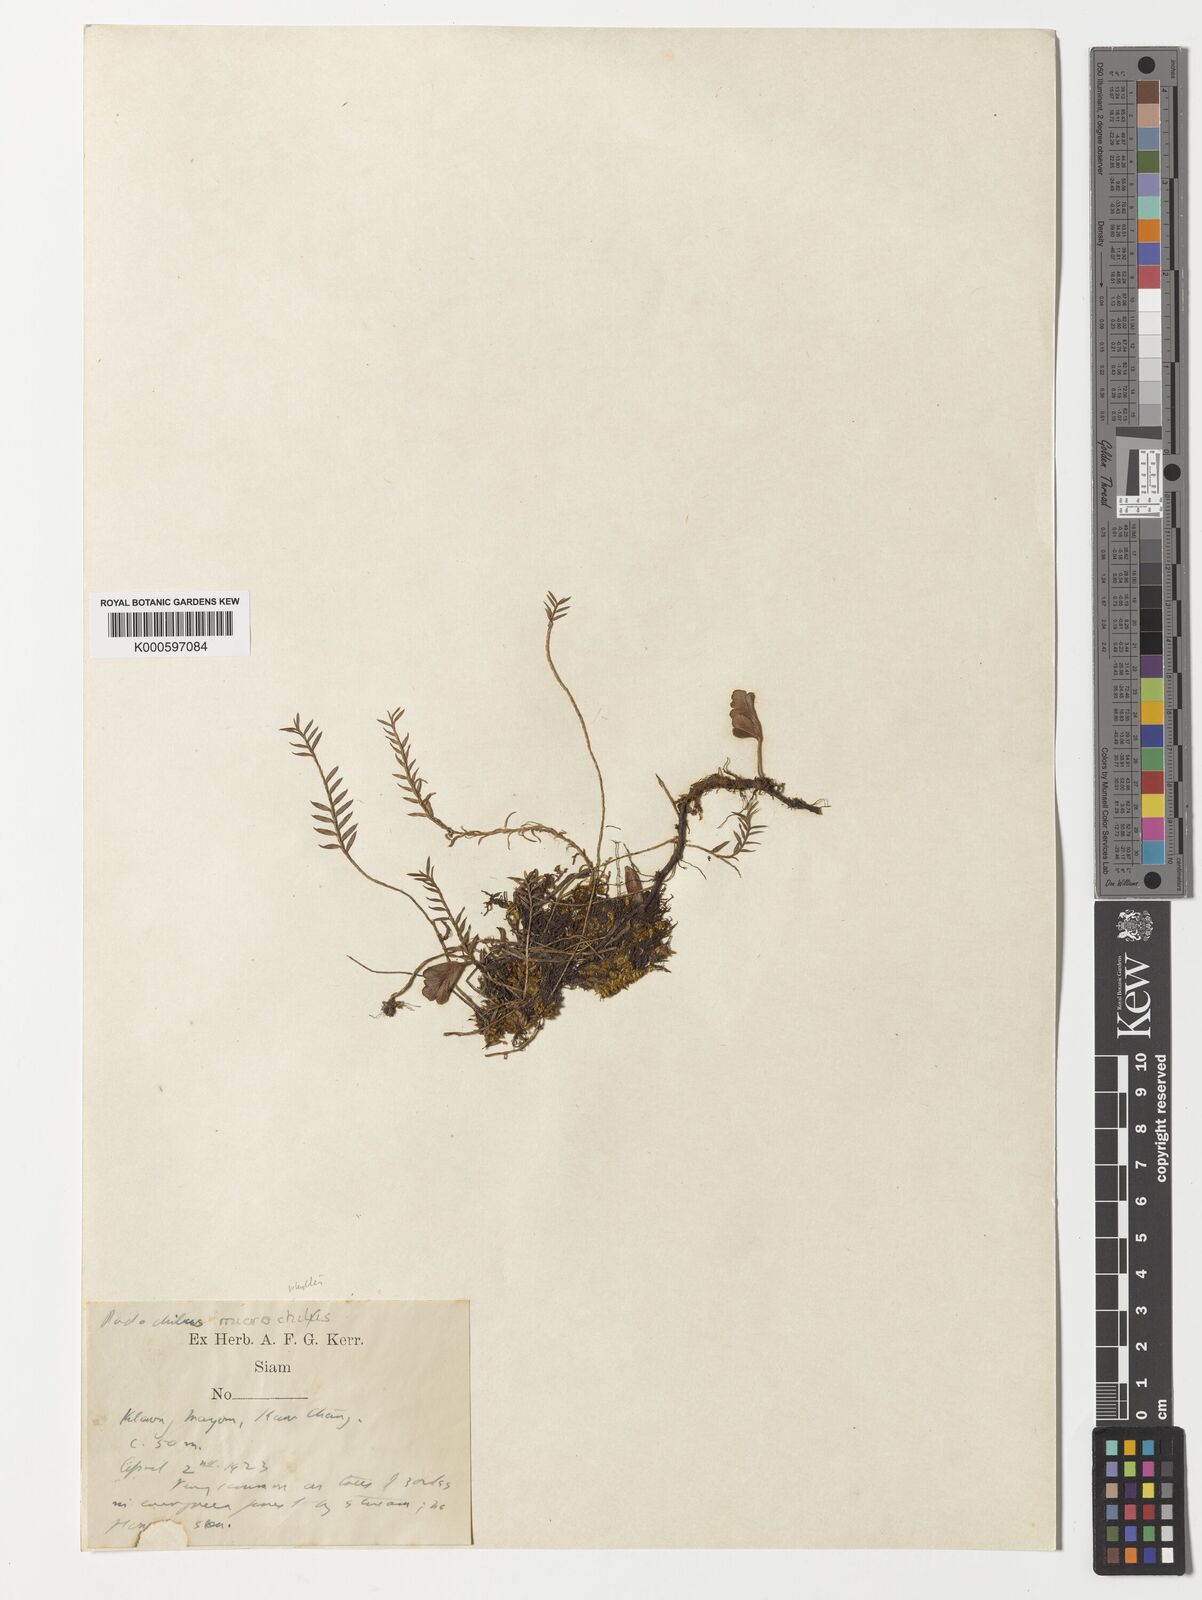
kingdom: Plantae
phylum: Tracheophyta
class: Liliopsida
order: Asparagales
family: Orchidaceae
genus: Podochilus
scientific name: Podochilus microphyllus
